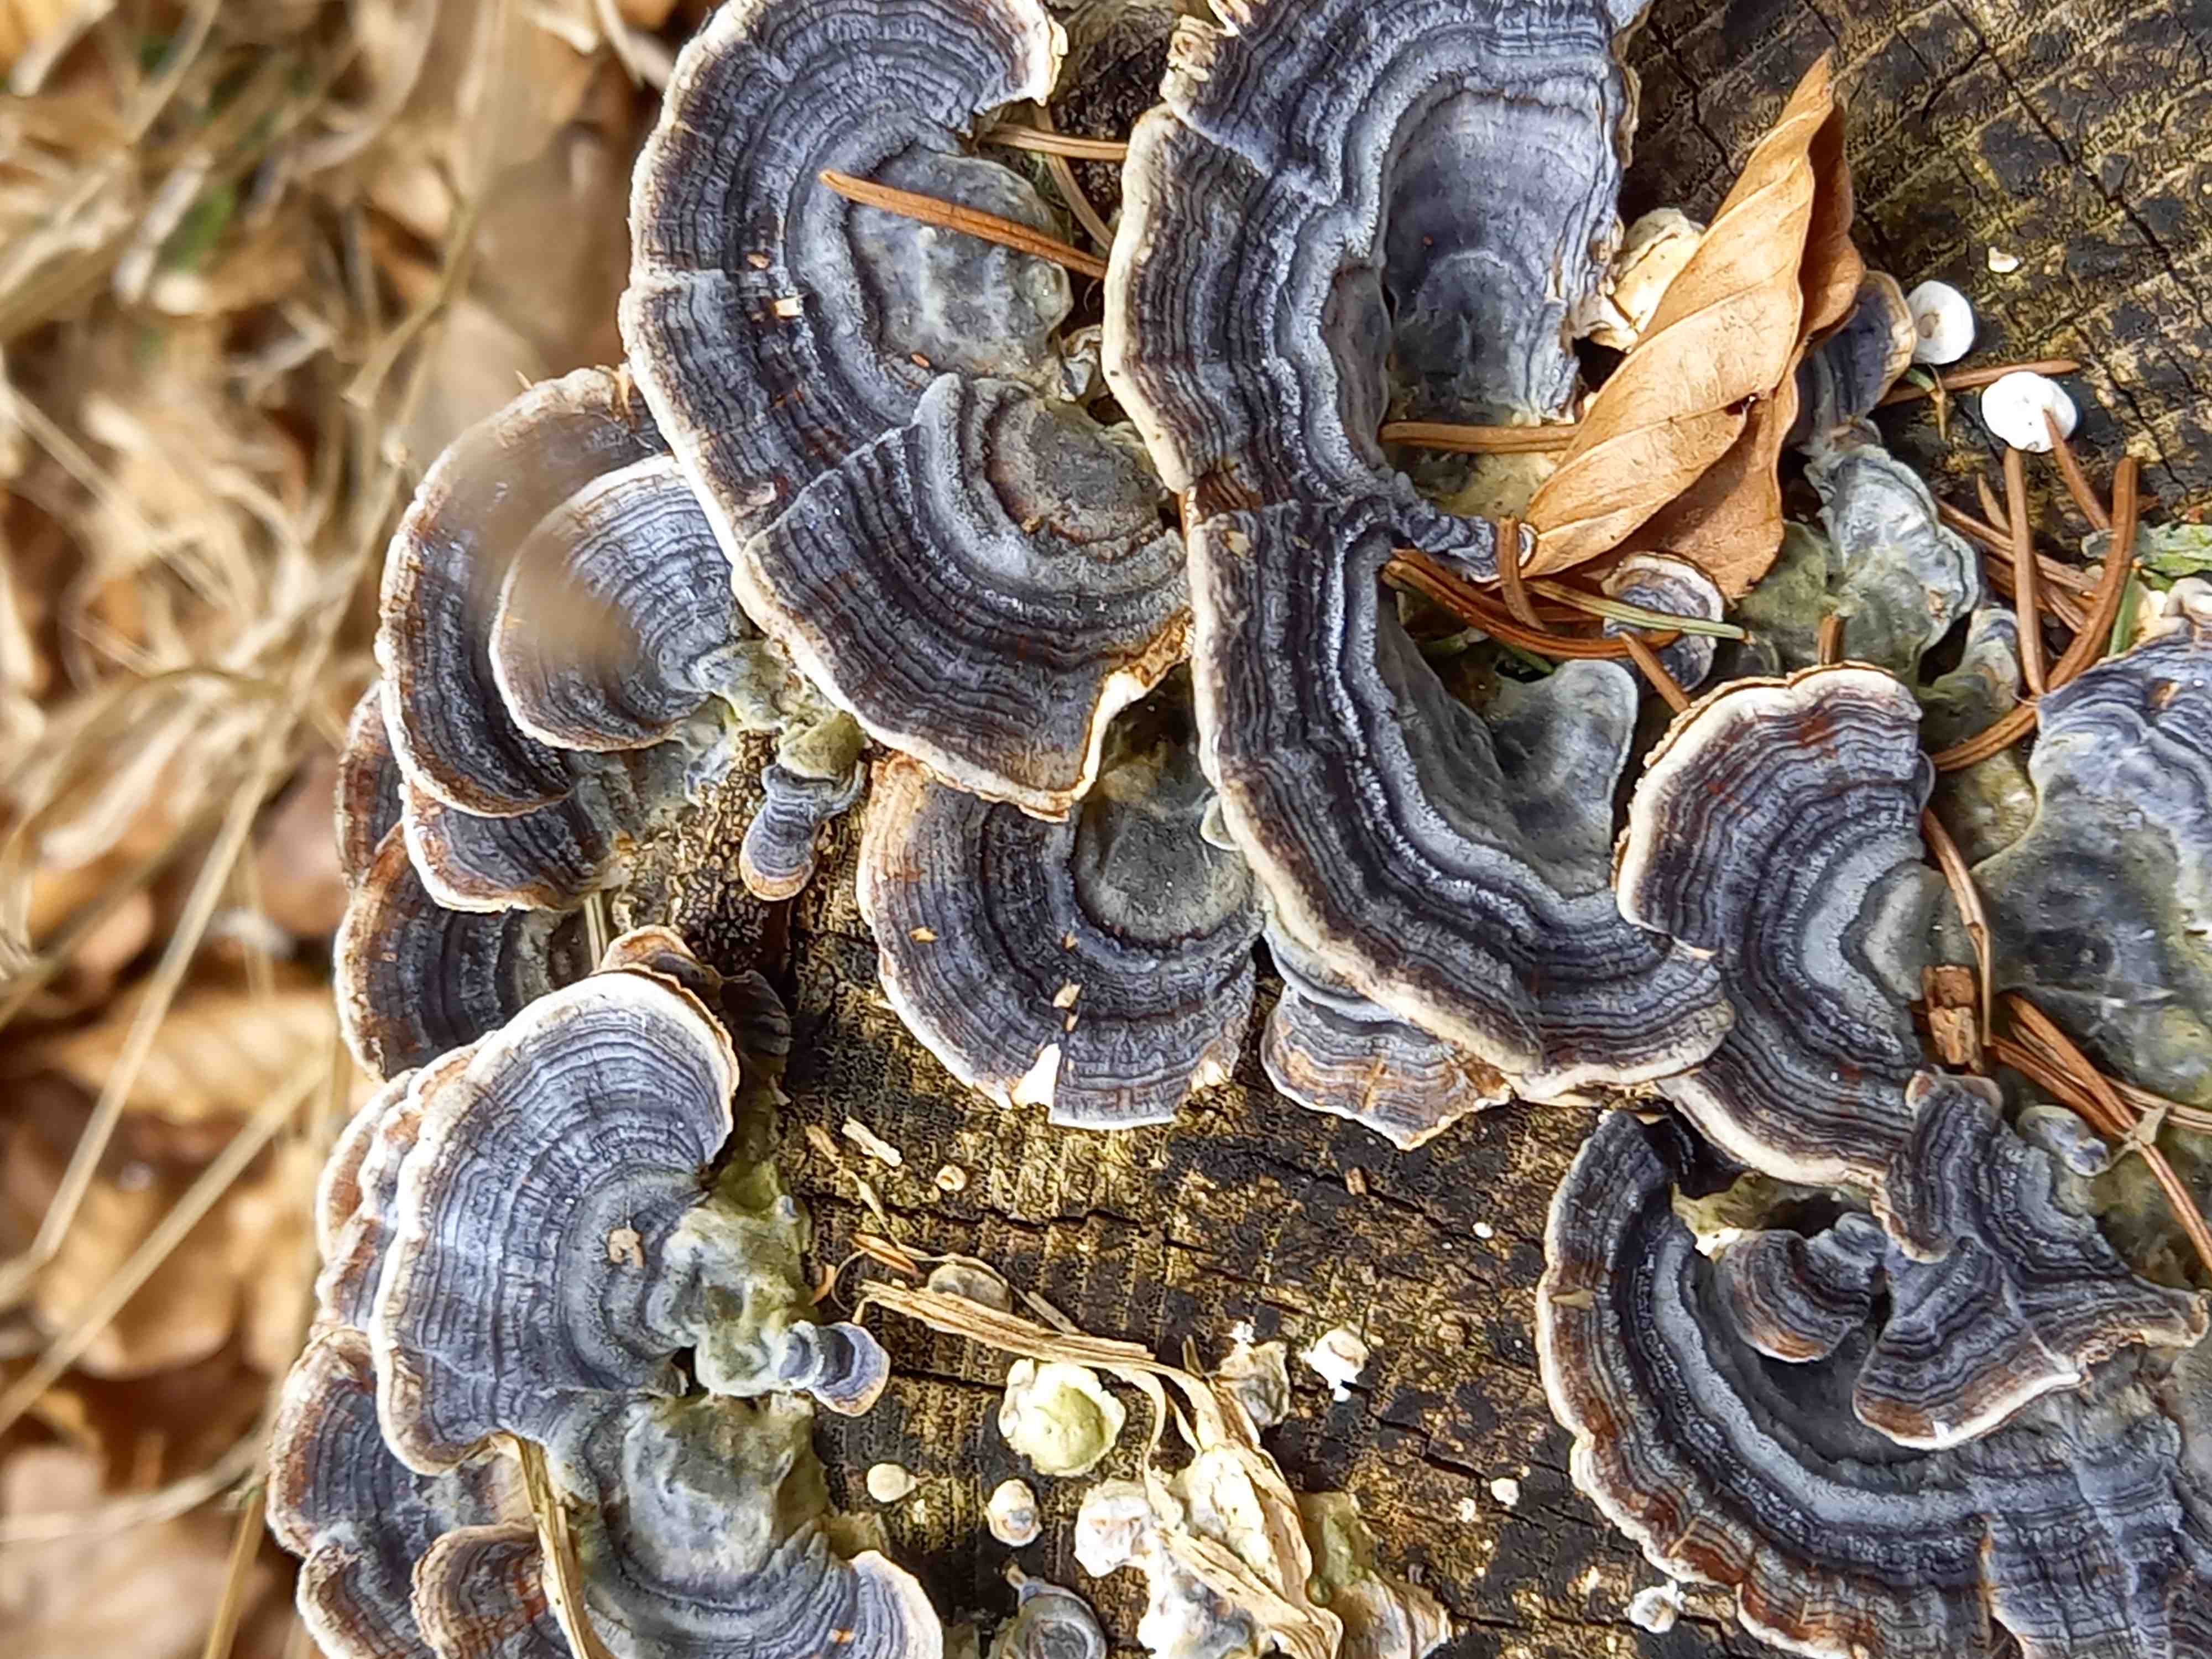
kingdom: Fungi
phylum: Basidiomycota
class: Agaricomycetes
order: Polyporales
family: Polyporaceae
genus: Trametes
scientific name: Trametes versicolor
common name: broget læderporesvamp
